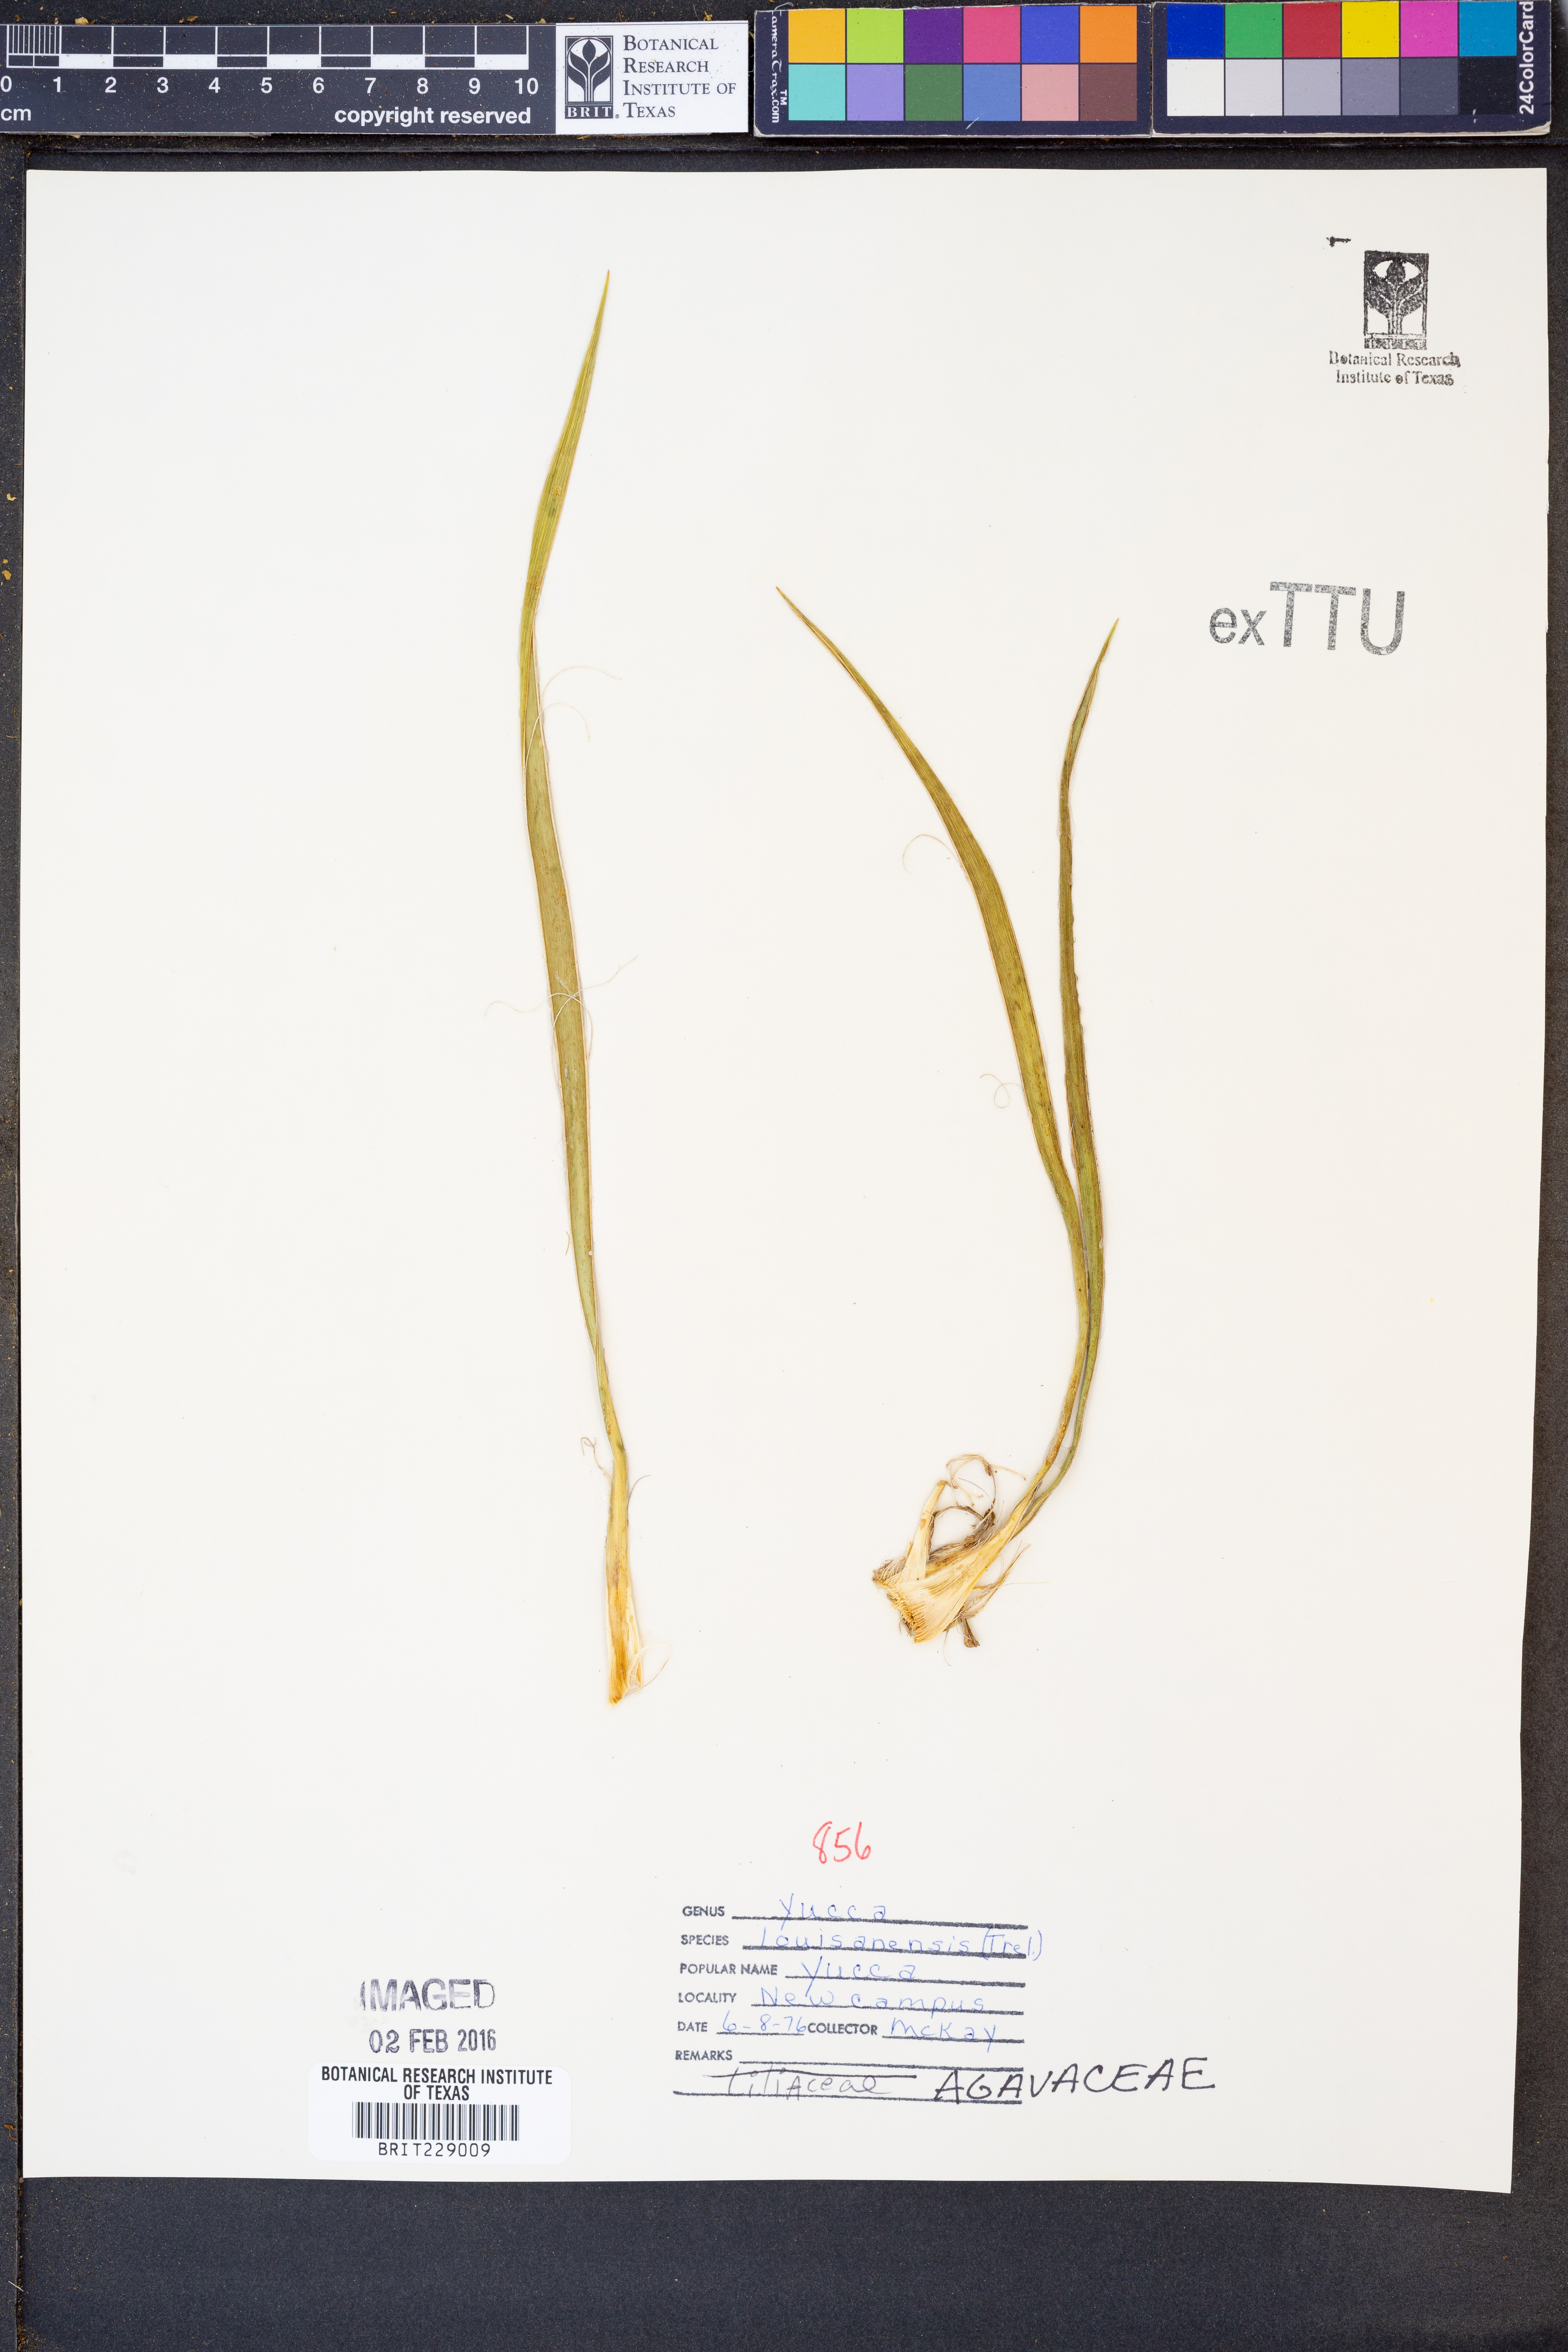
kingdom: Plantae
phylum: Tracheophyta
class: Liliopsida
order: Asparagales
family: Asparagaceae
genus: Yucca
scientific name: Yucca flaccida
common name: Adam's-needle
